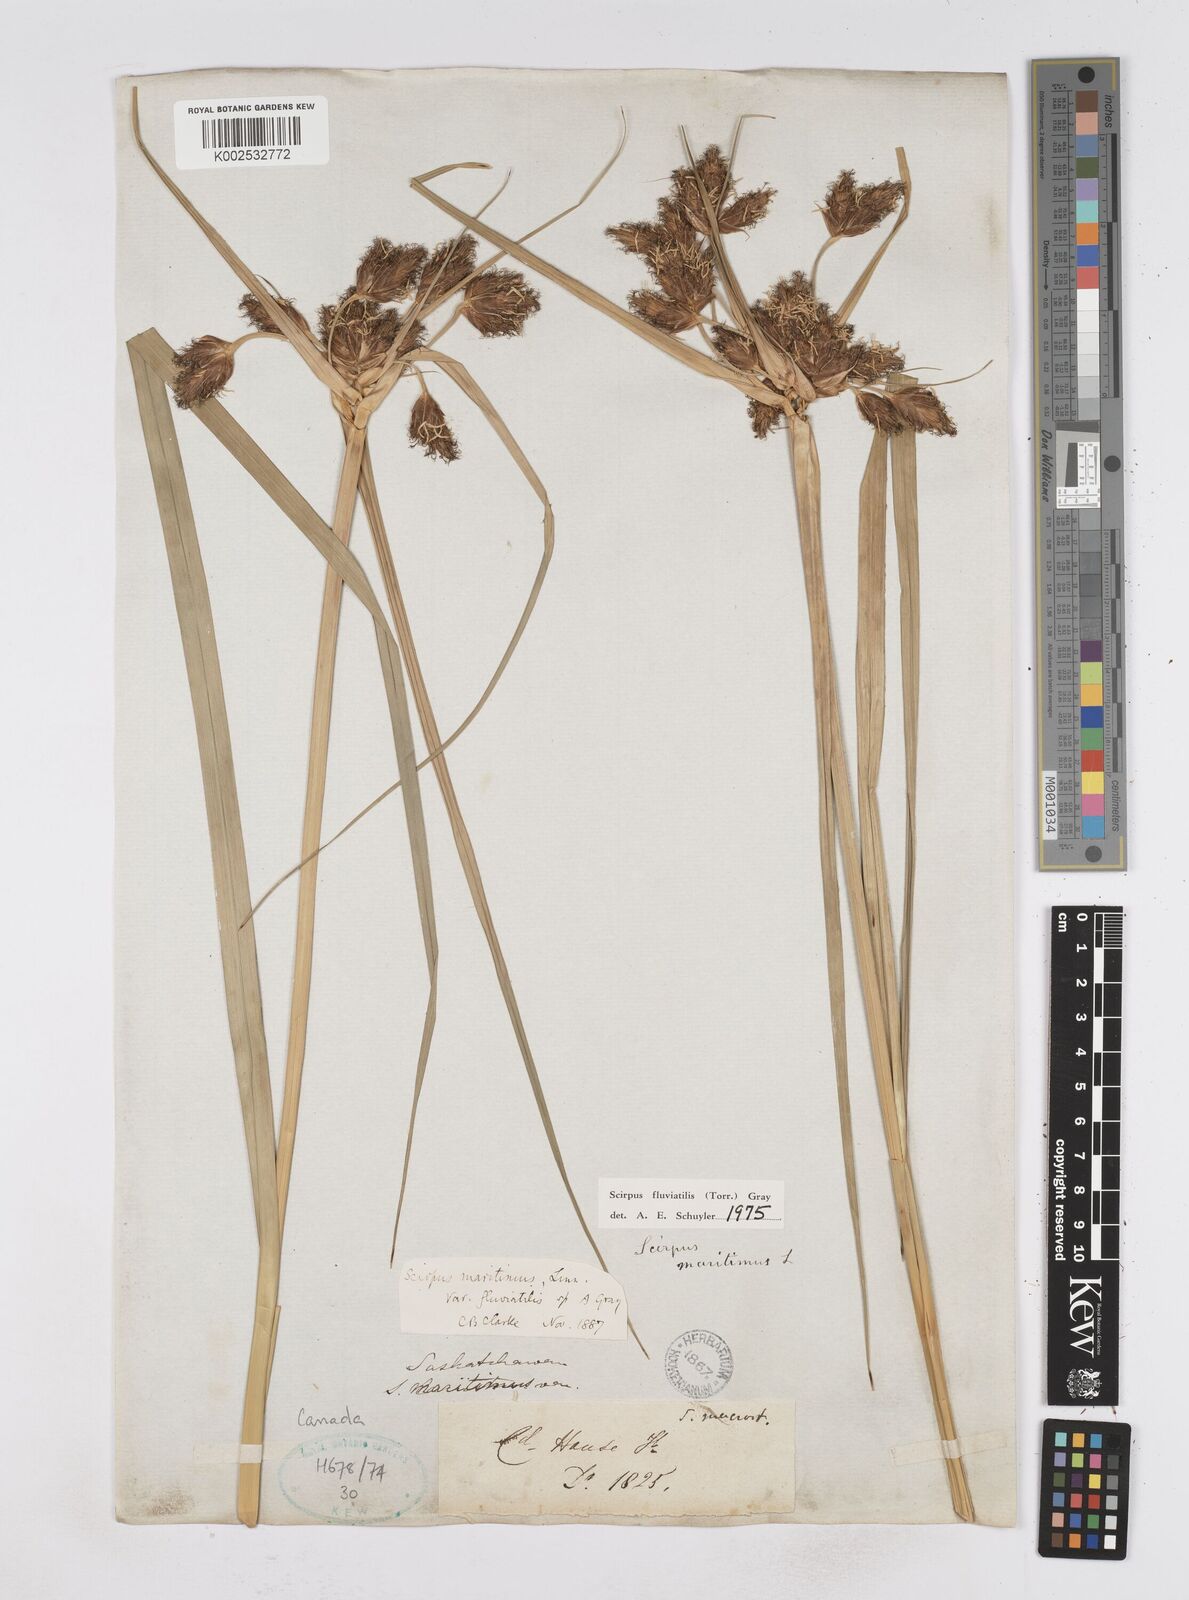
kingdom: Plantae
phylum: Tracheophyta
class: Liliopsida
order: Poales
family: Cyperaceae
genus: Bolboschoenus
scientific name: Bolboschoenus
